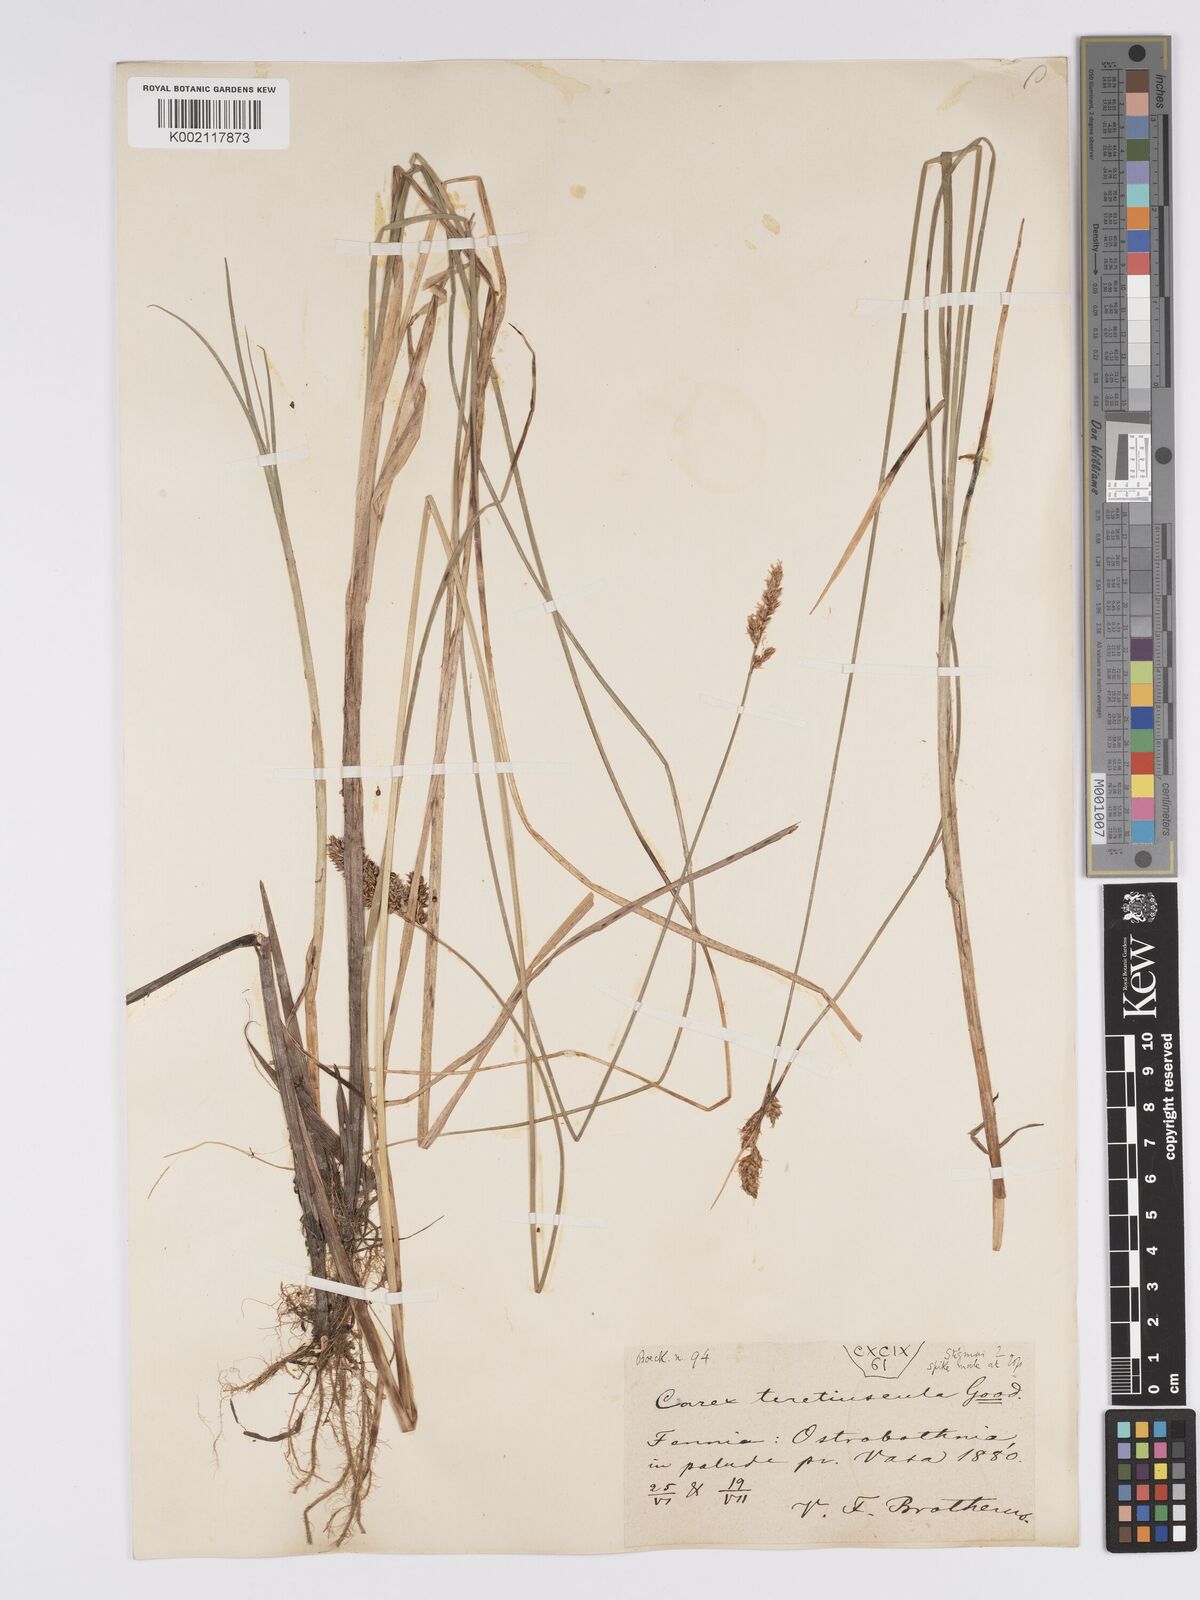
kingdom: Plantae
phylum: Tracheophyta
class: Liliopsida
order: Poales
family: Cyperaceae
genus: Carex
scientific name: Carex diandra
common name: Lesser tussock-sedge
